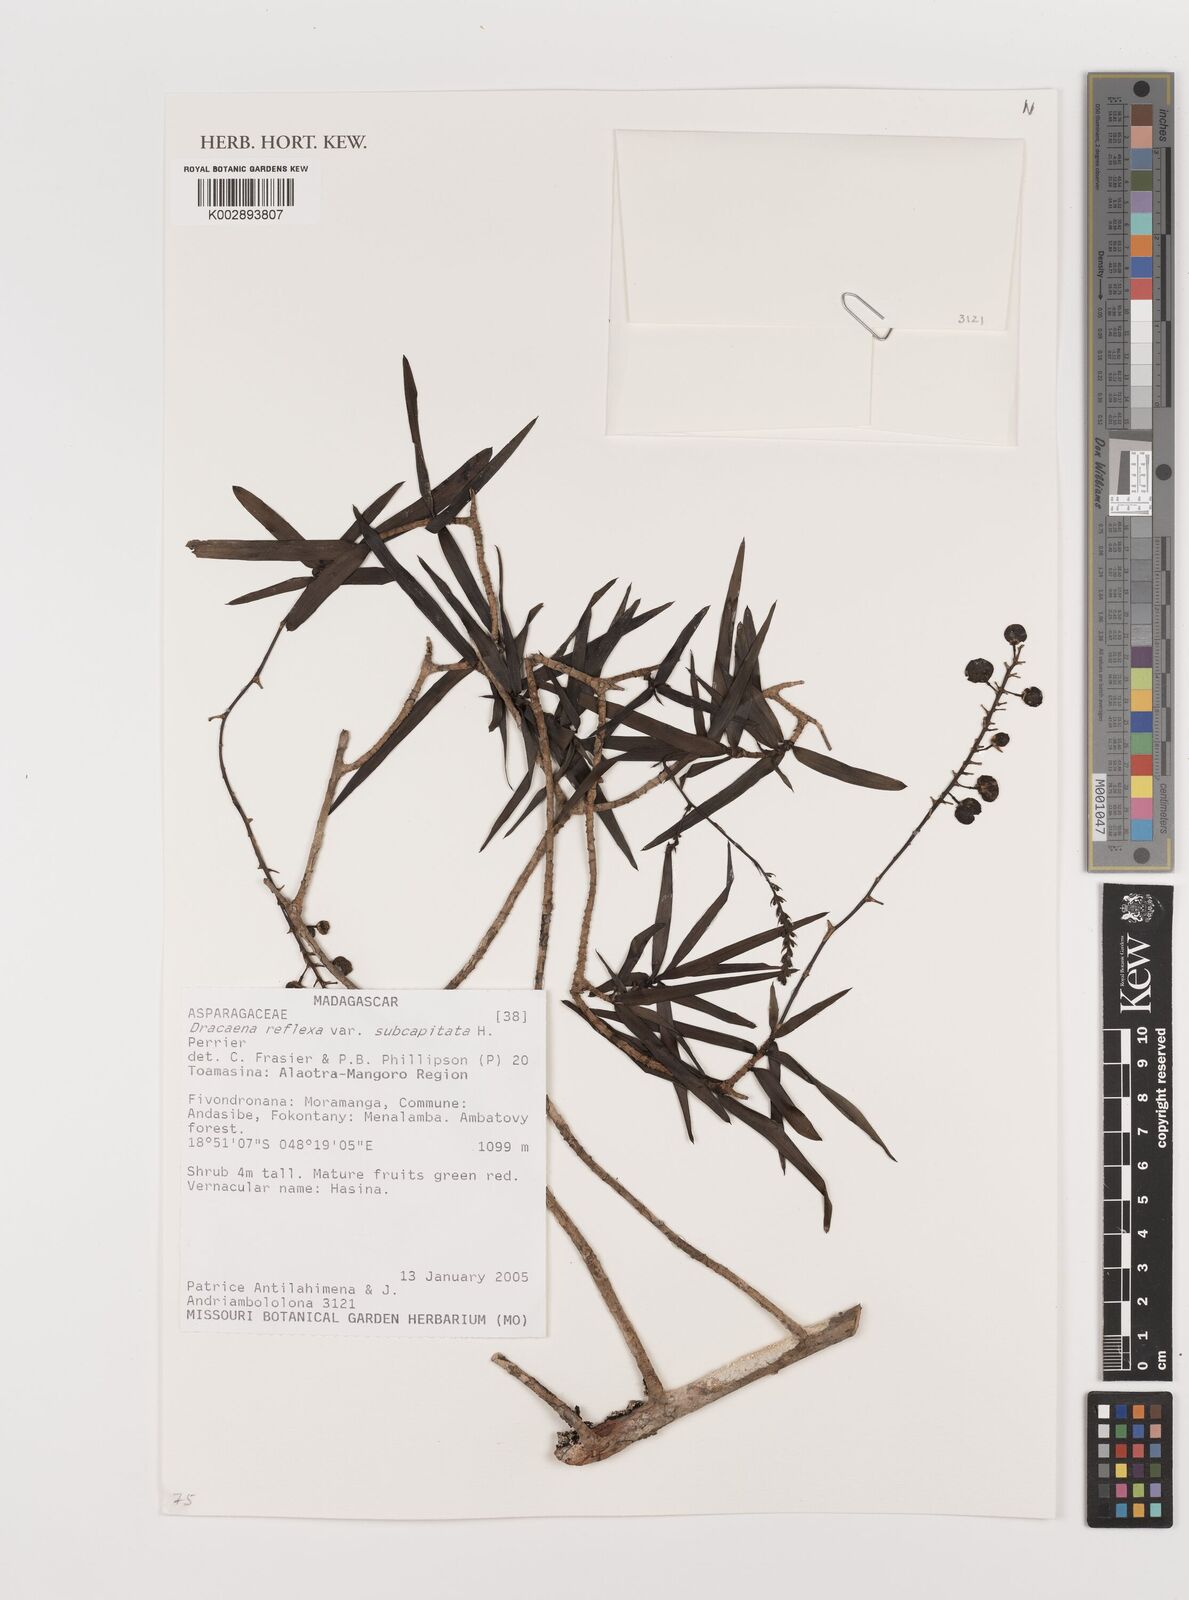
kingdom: Plantae
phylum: Tracheophyta
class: Liliopsida
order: Asparagales
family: Asparagaceae
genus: Dracaena
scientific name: Dracaena reflexa
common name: Song-of-india
